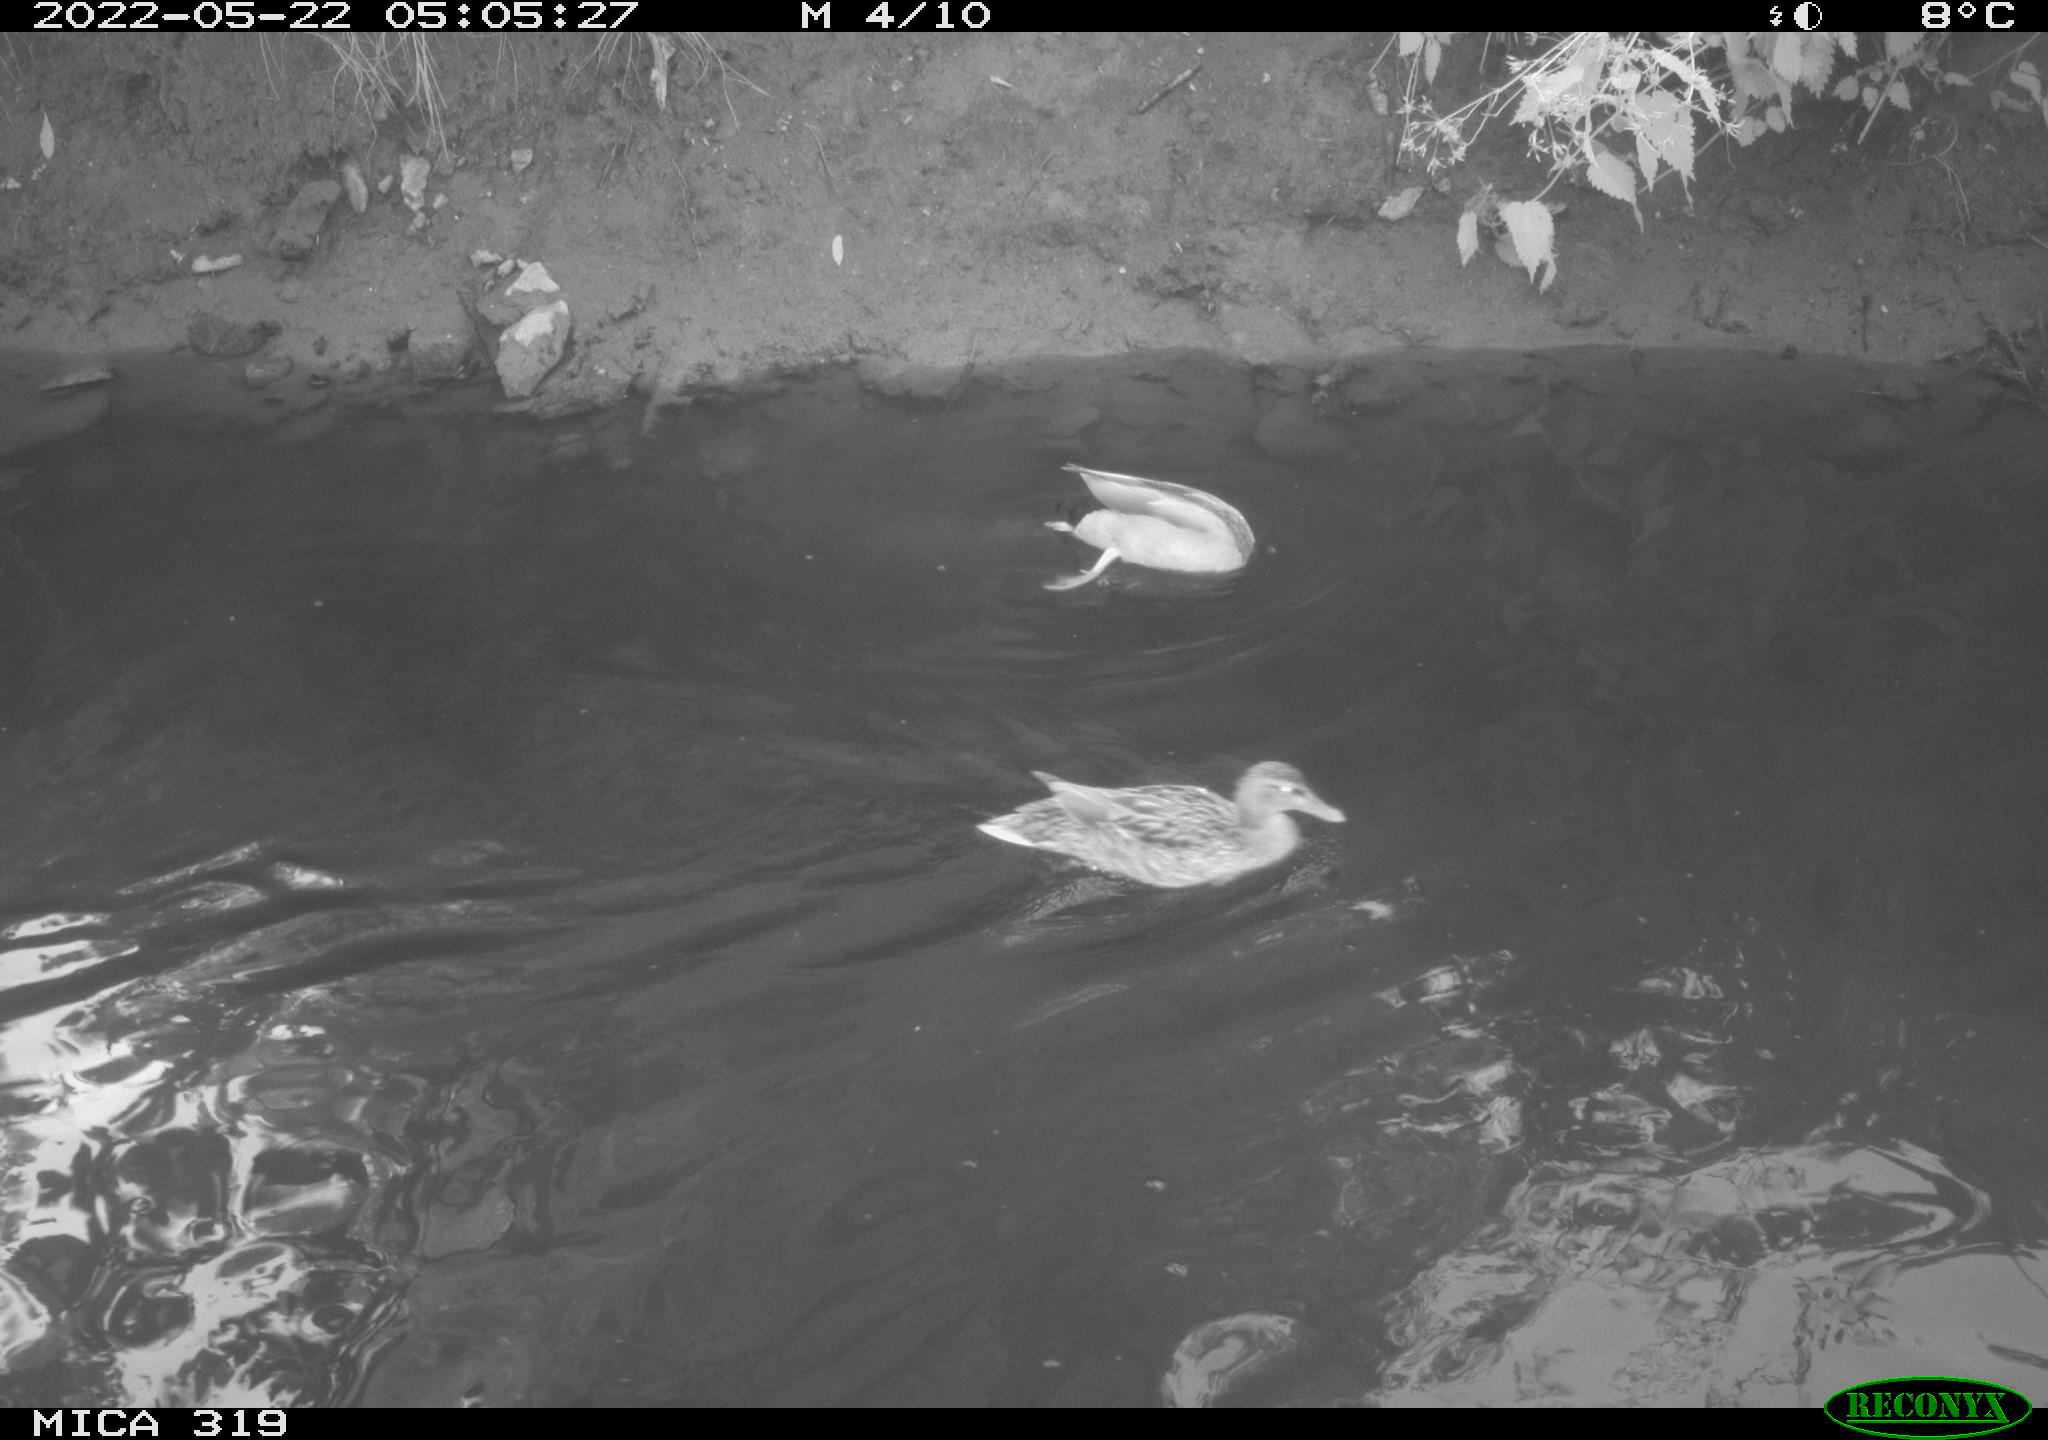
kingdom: Animalia
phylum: Chordata
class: Aves
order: Anseriformes
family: Anatidae
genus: Anas
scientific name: Anas
